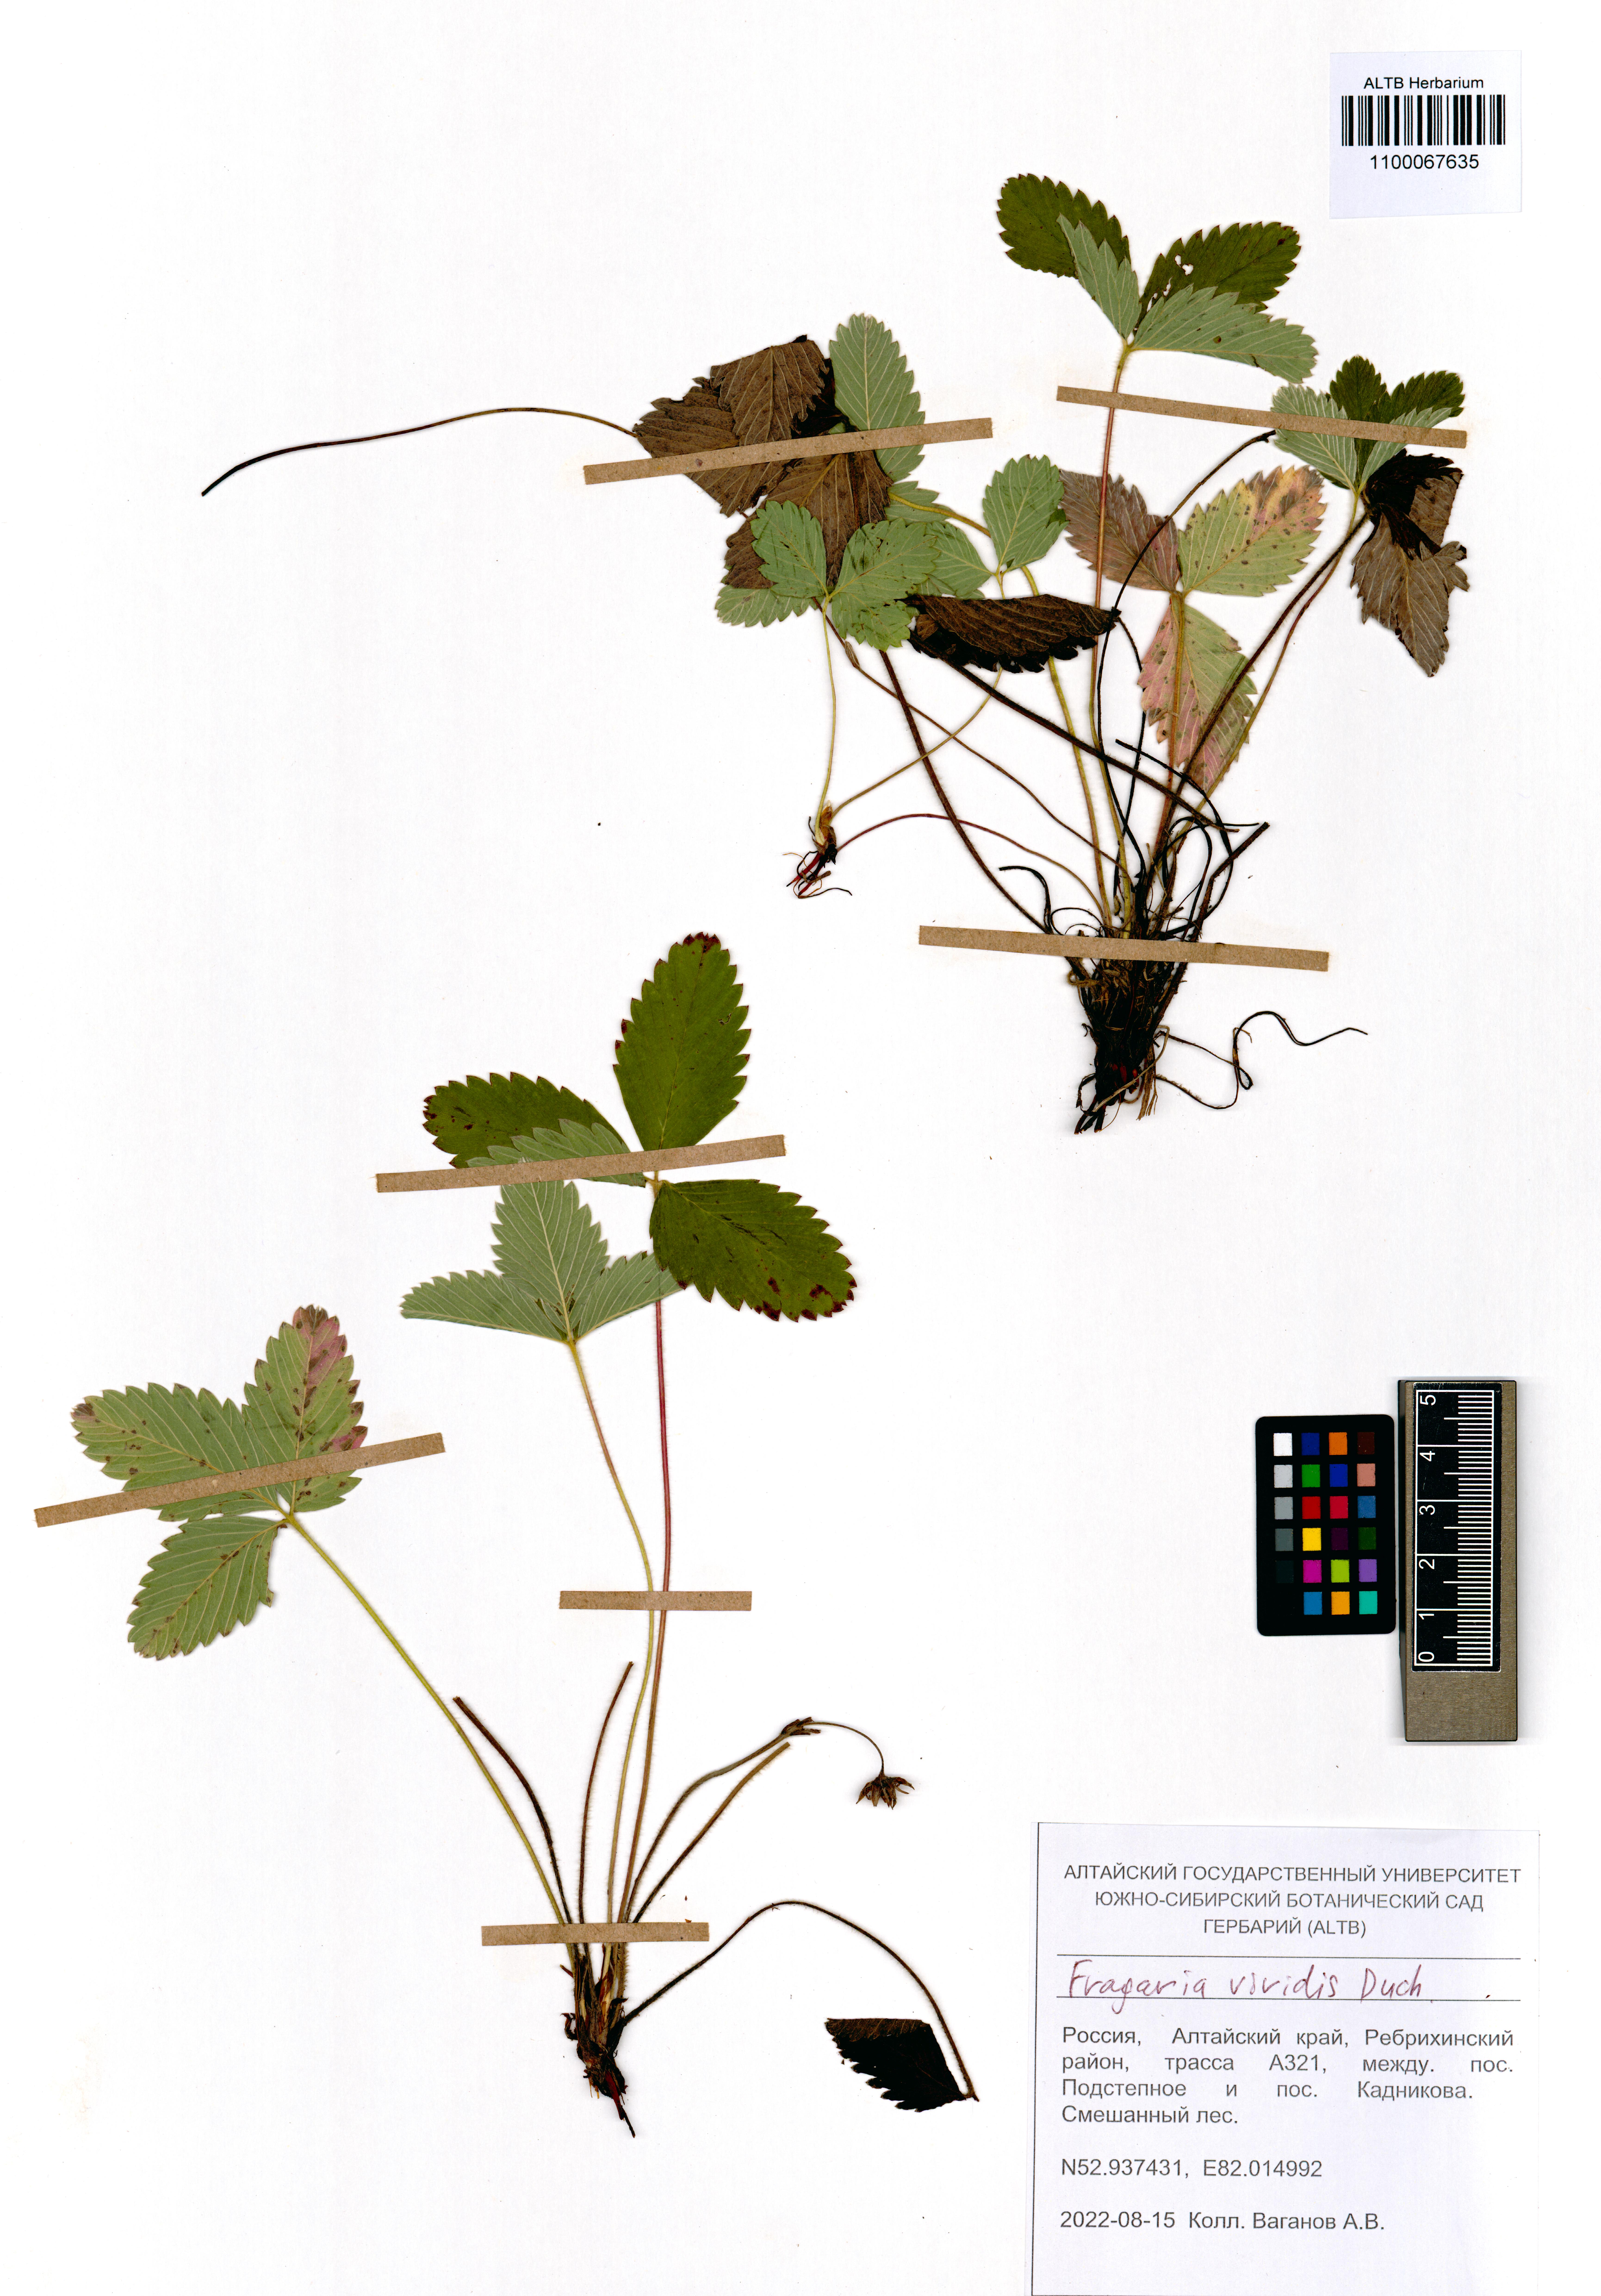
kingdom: Plantae
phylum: Tracheophyta
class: Magnoliopsida
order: Rosales
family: Rosaceae
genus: Fragaria
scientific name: Fragaria viridis
